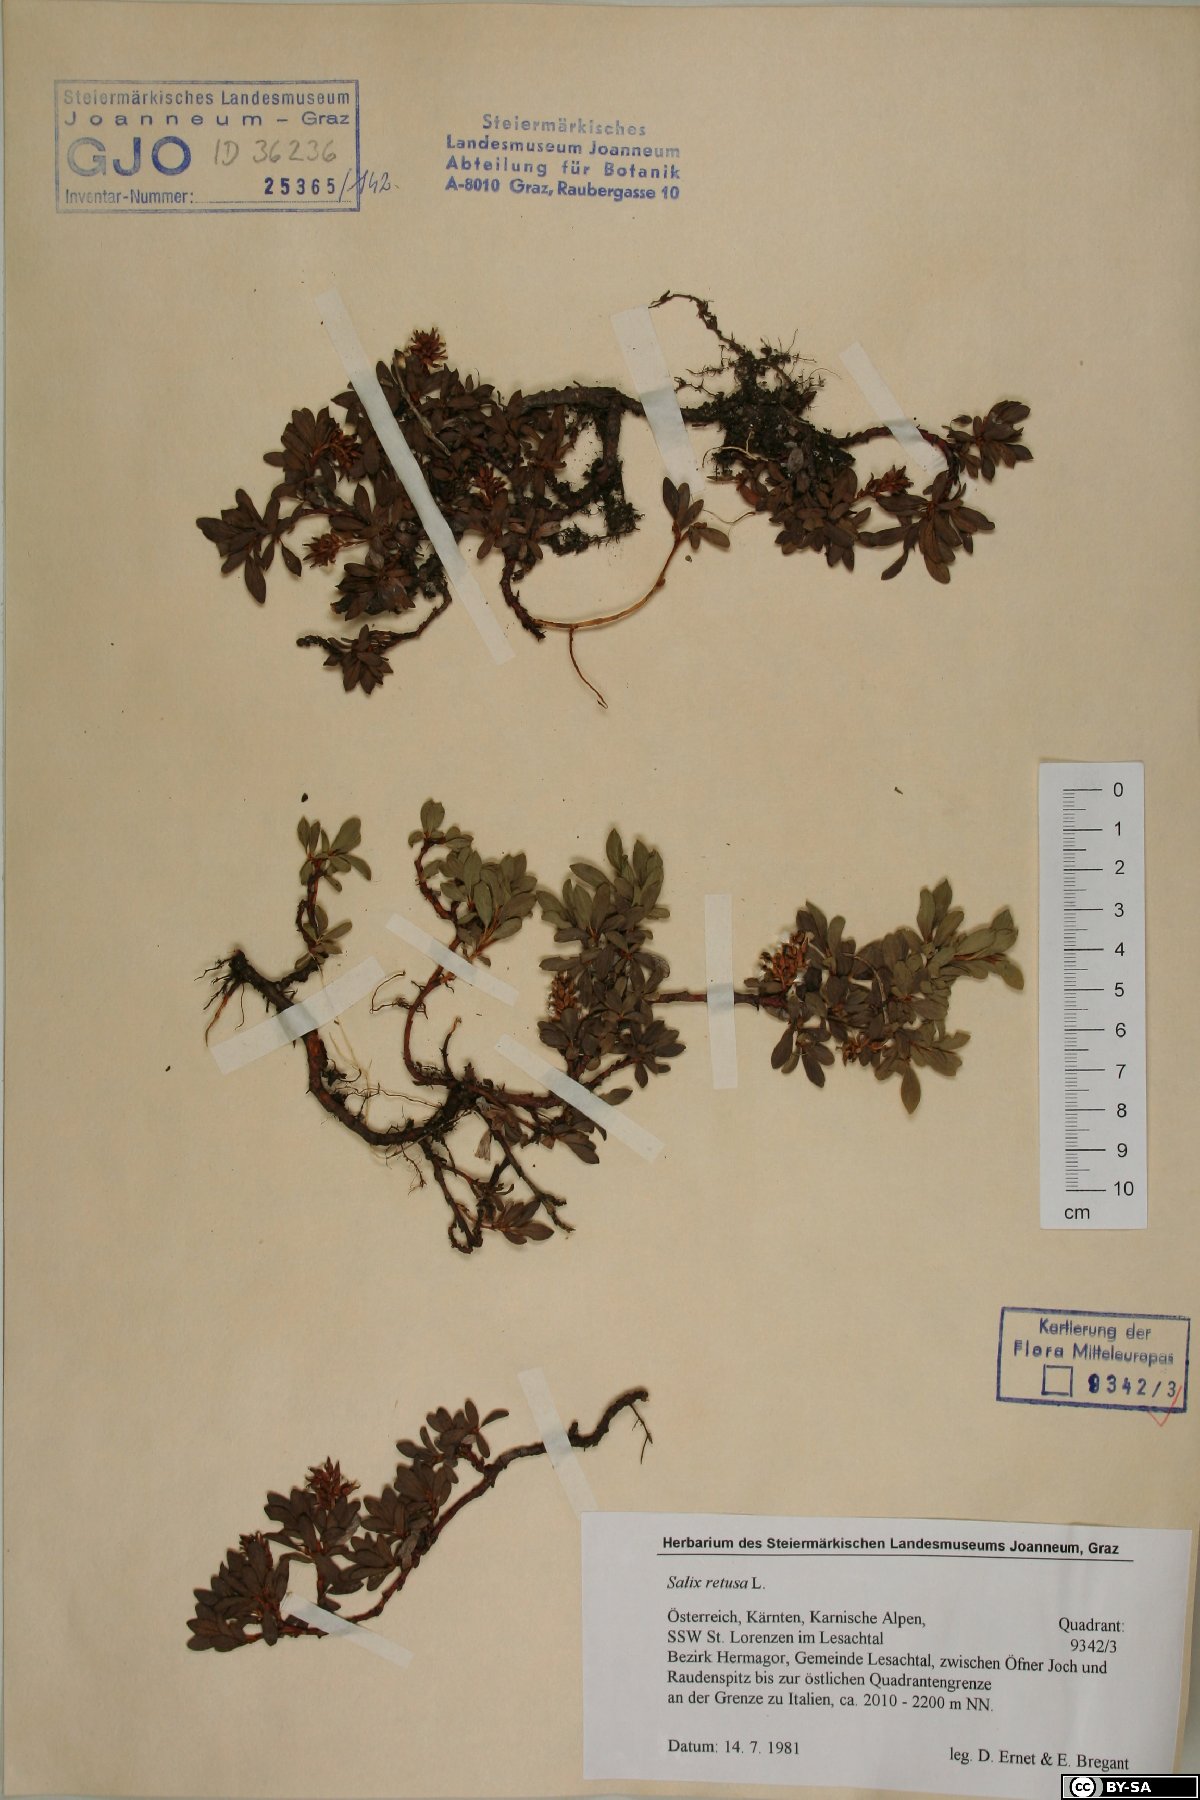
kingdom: Plantae
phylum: Tracheophyta
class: Magnoliopsida
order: Malpighiales
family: Salicaceae
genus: Salix
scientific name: Salix retusa
